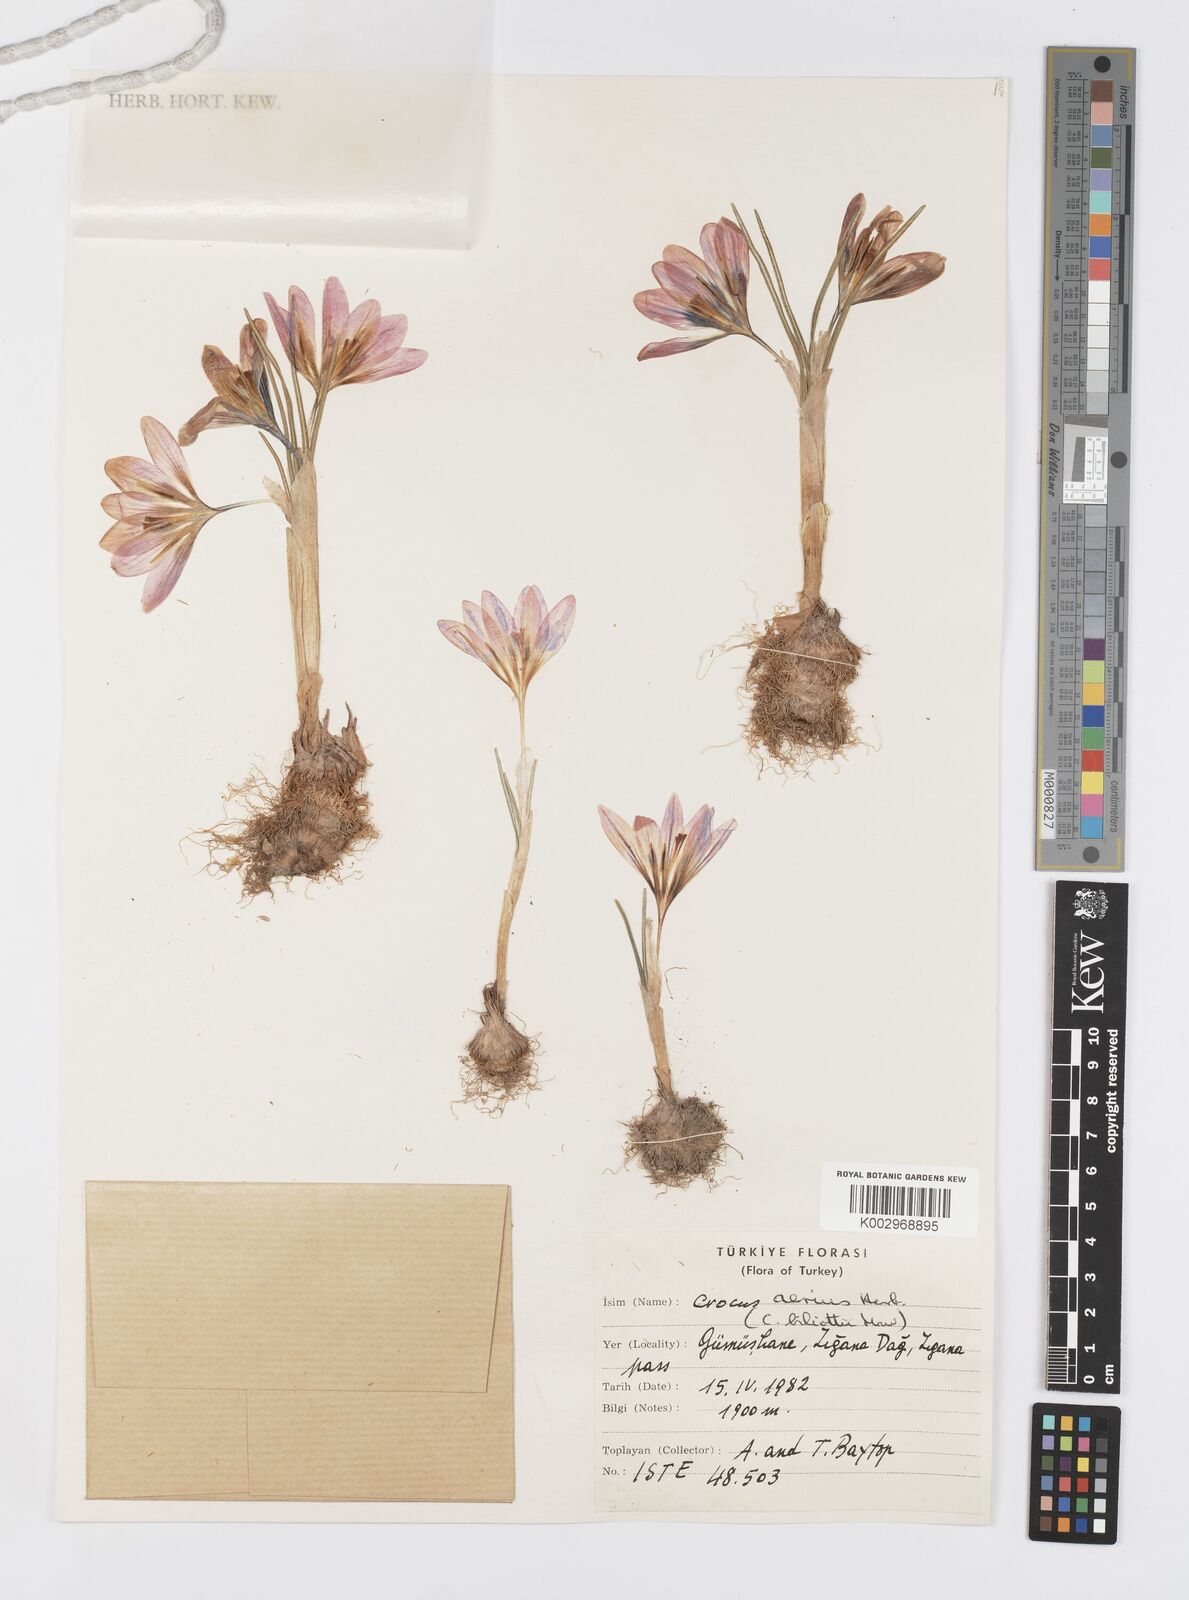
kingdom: Plantae
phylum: Tracheophyta
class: Liliopsida
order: Asparagales
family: Iridaceae
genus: Crocus
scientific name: Crocus aerius
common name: Aerial crocus
